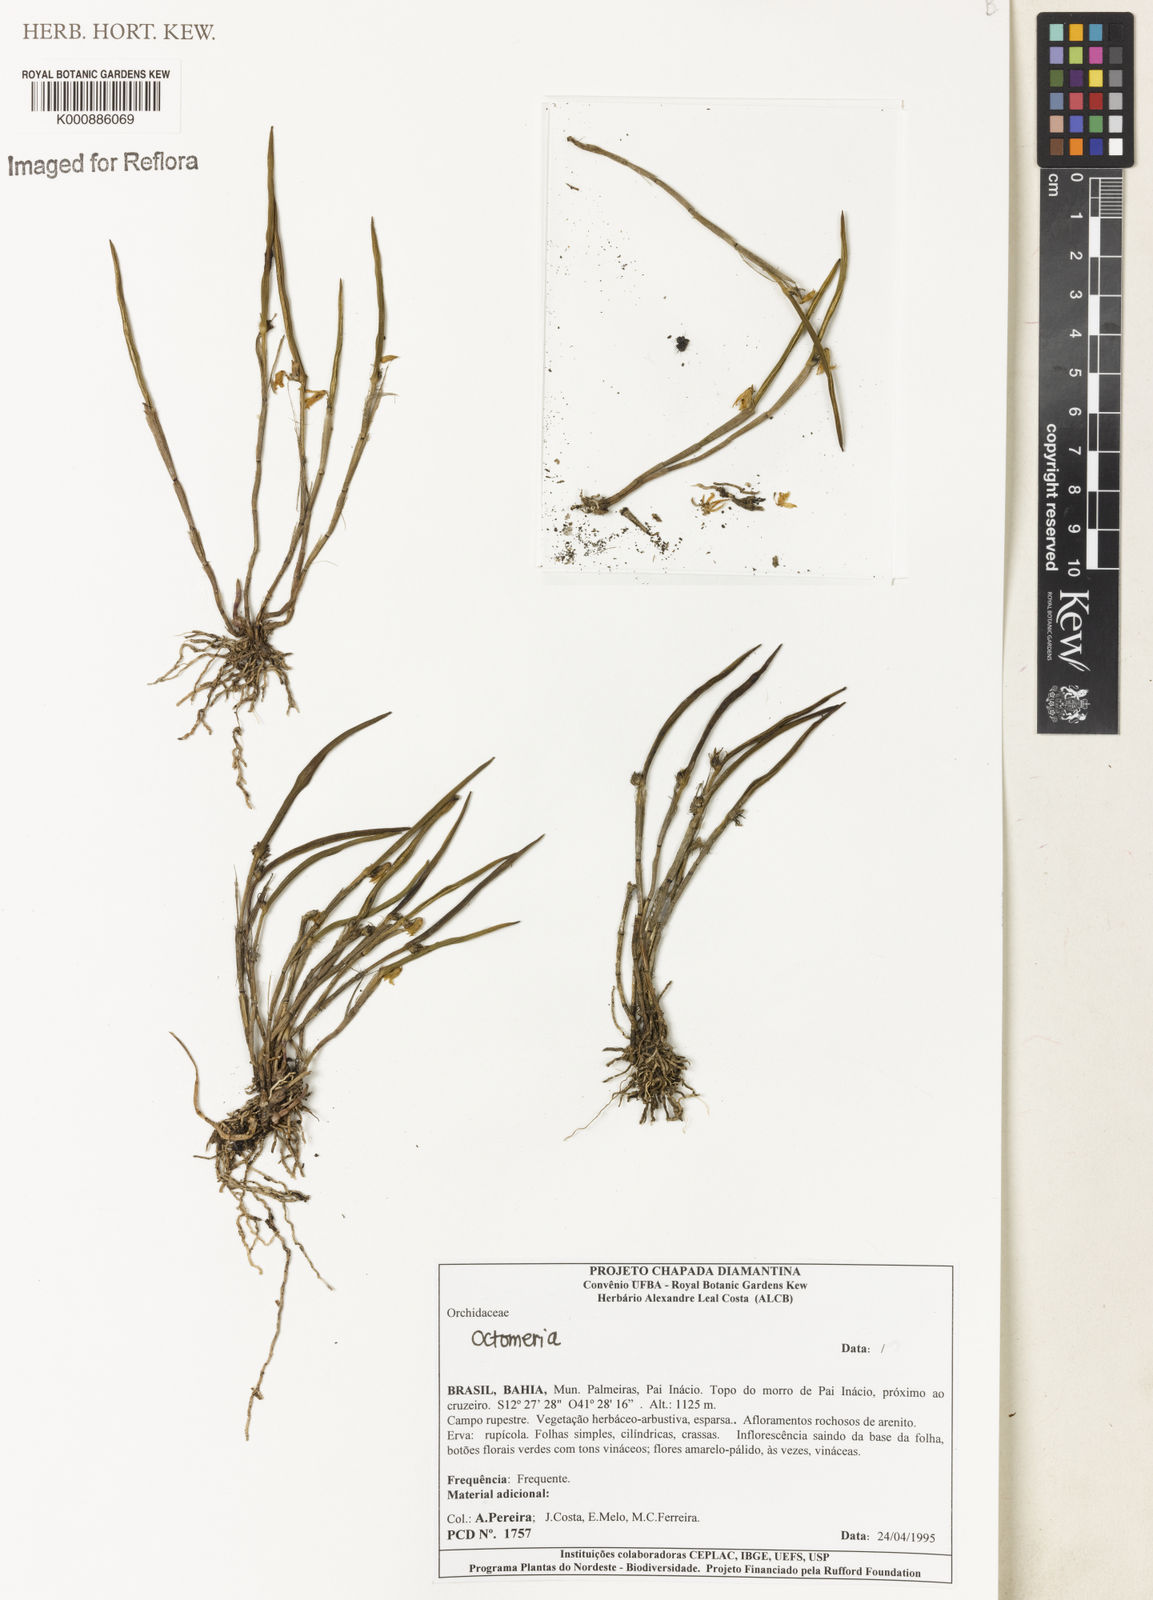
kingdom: Plantae
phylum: Tracheophyta
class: Liliopsida
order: Asparagales
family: Orchidaceae
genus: Octomeria
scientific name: Octomeria
